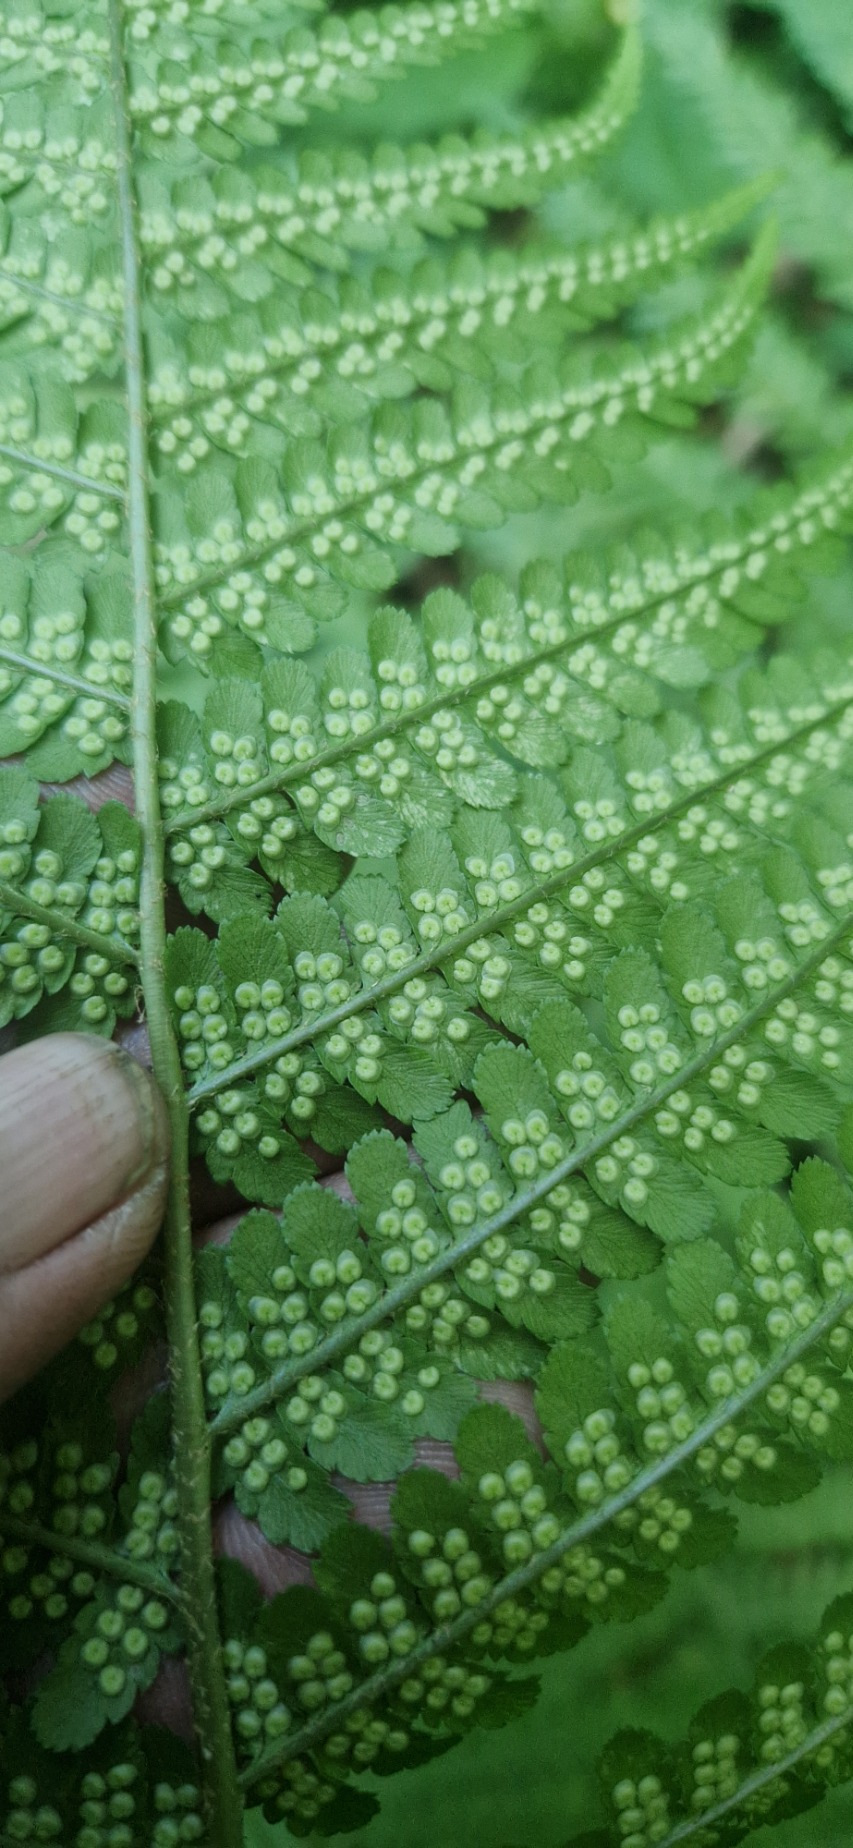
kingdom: Plantae
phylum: Tracheophyta
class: Polypodiopsida
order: Polypodiales
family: Dryopteridaceae
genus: Dryopteris
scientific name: Dryopteris filix-mas
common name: Almindelig mangeløv
